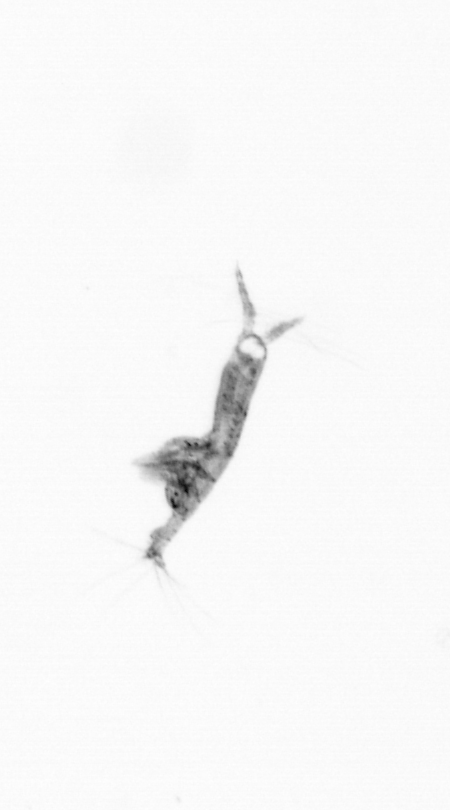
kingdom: Animalia
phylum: Arthropoda
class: Copepoda
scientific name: Copepoda
